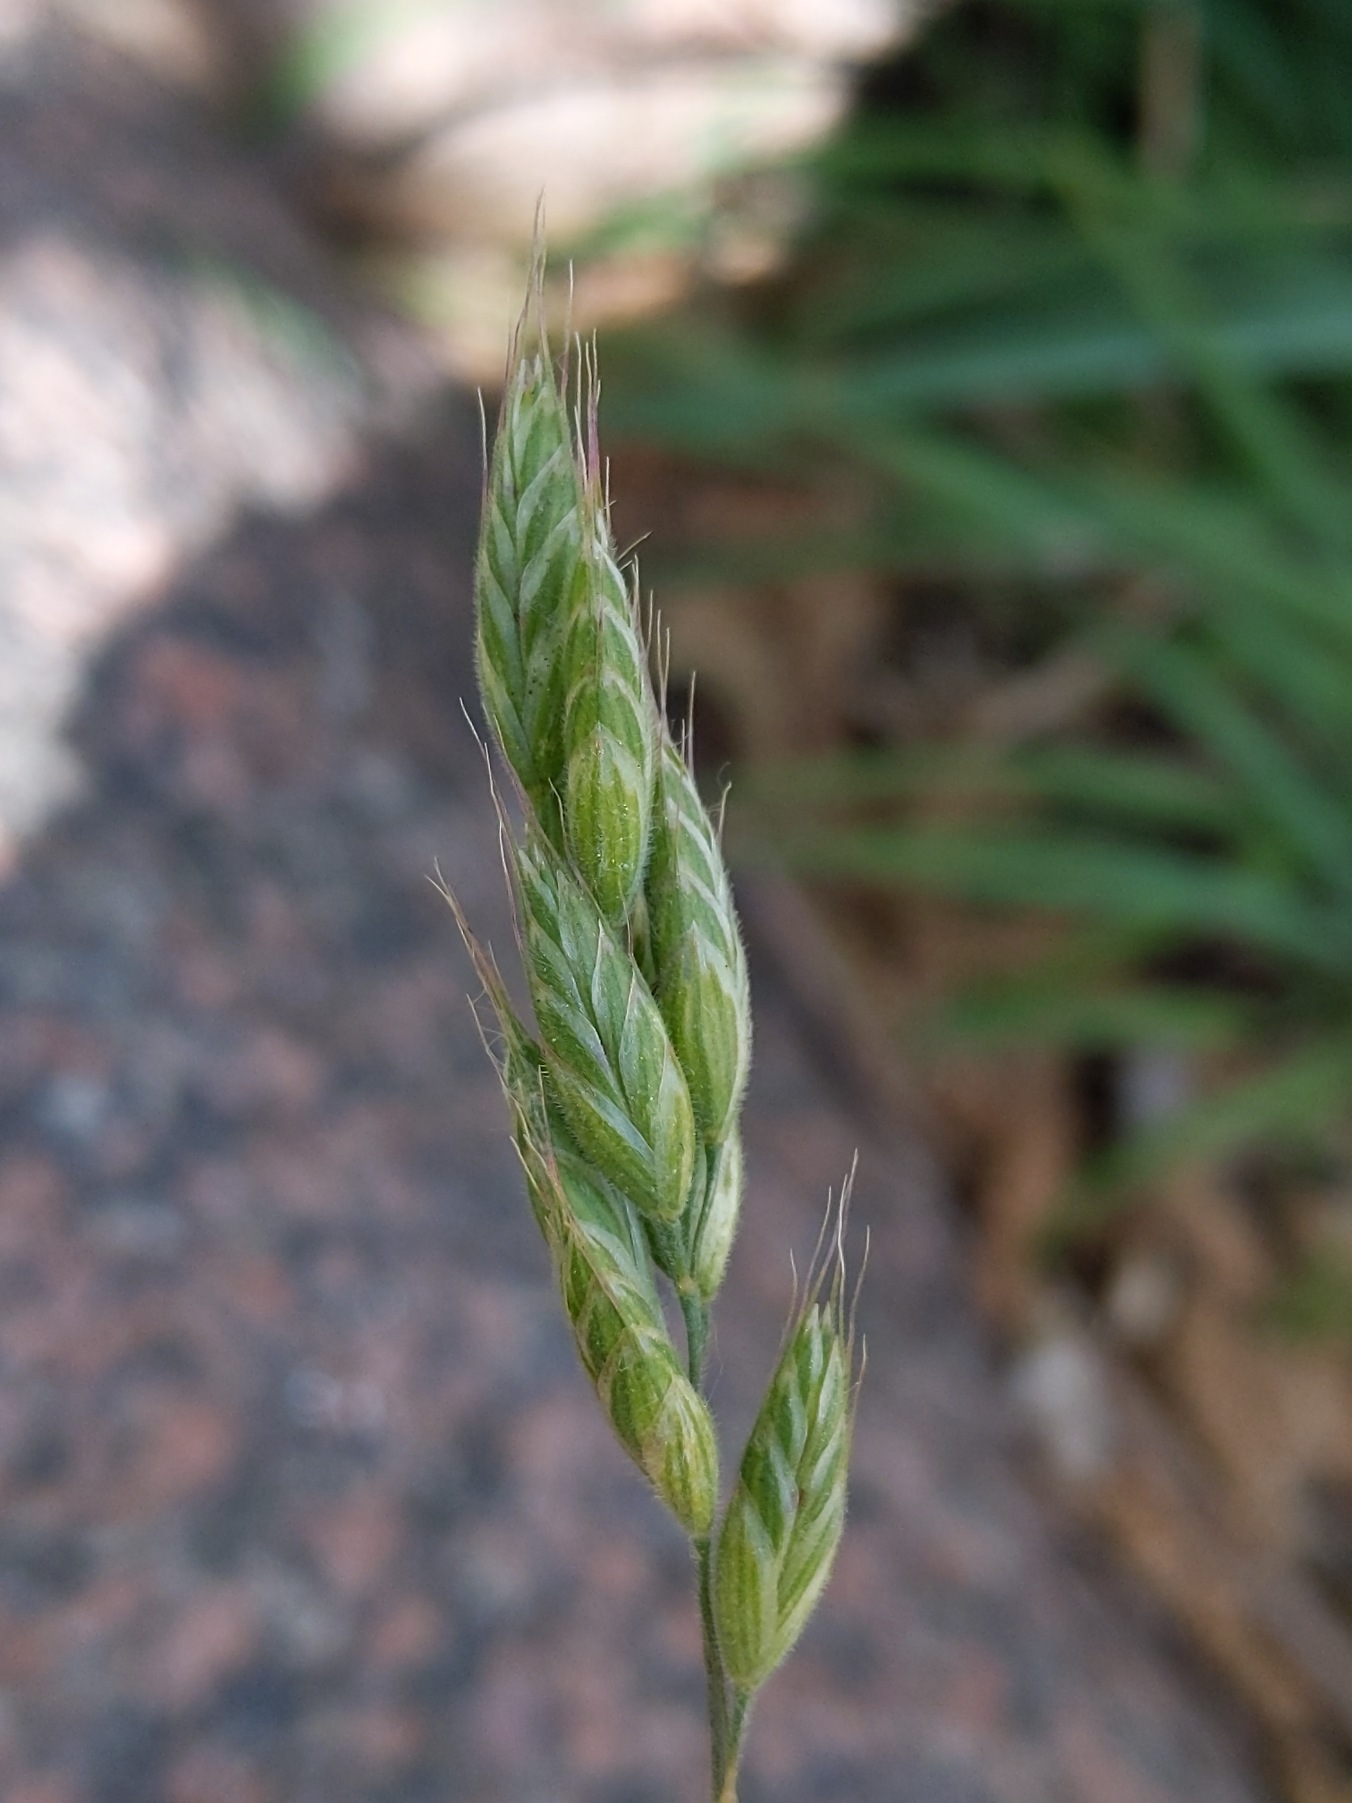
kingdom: Plantae
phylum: Tracheophyta
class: Liliopsida
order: Poales
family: Poaceae
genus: Bromus
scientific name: Bromus hordeaceus
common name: Blød hejre
